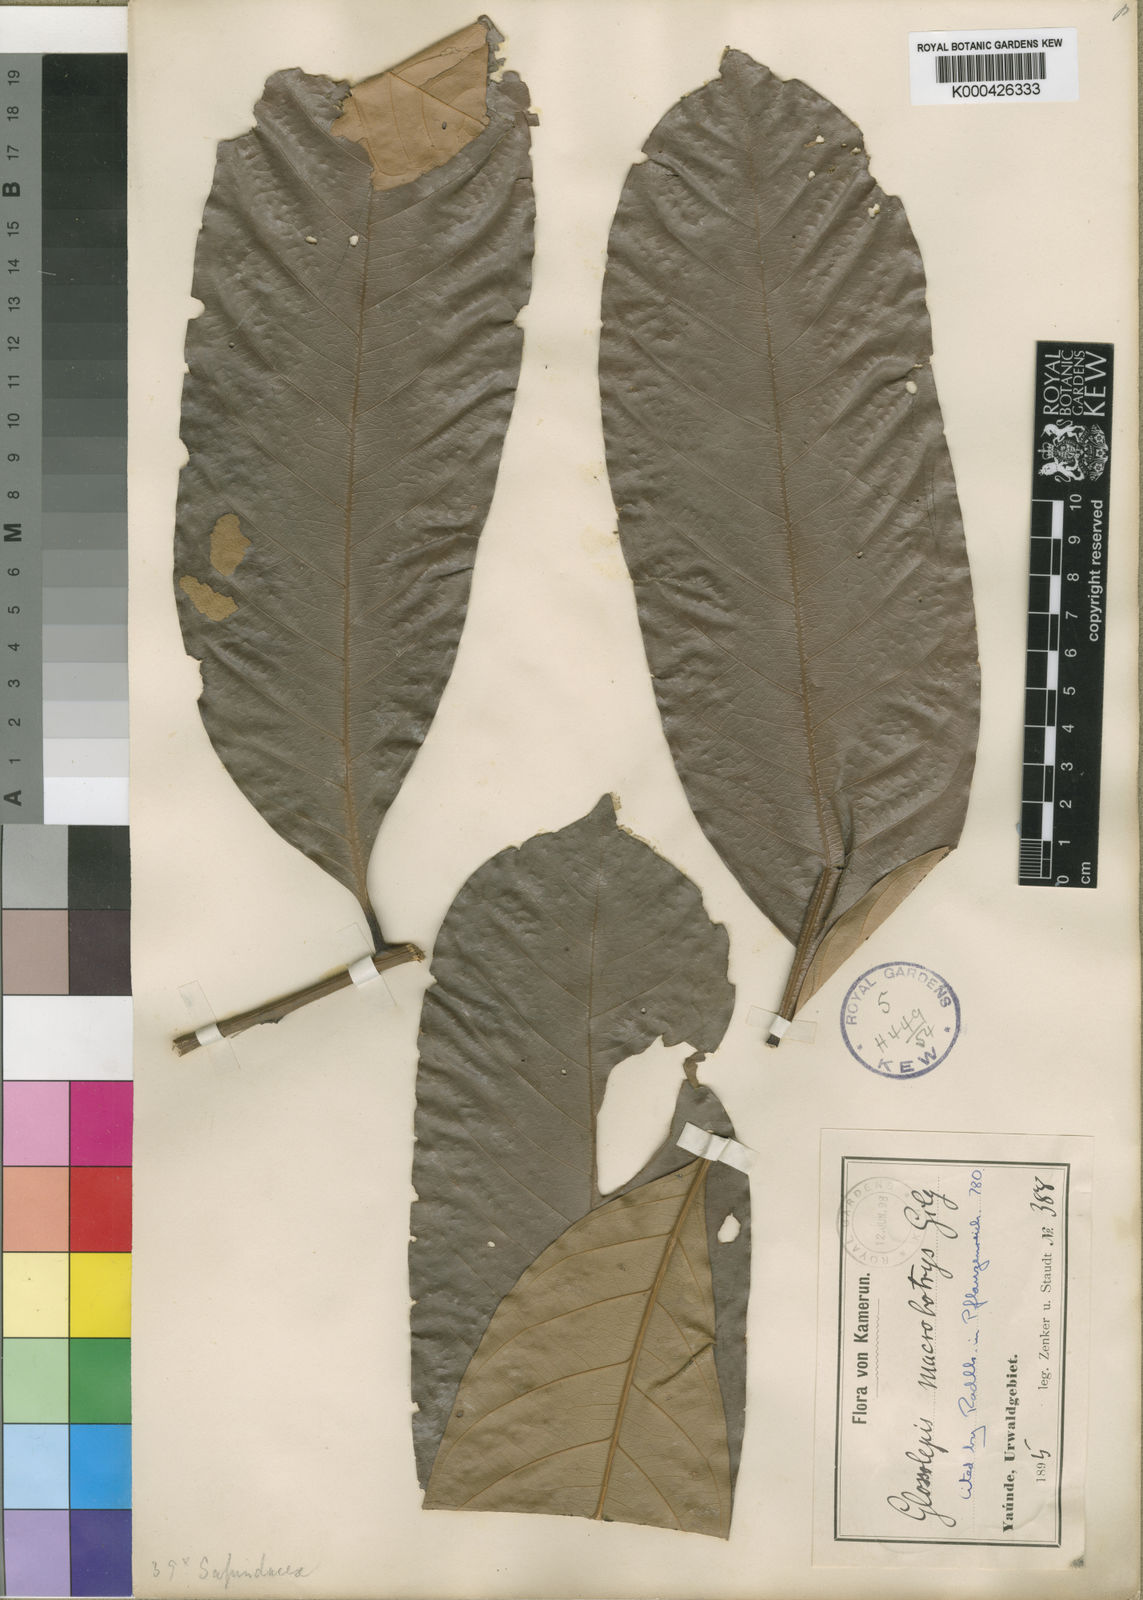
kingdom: Plantae
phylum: Tracheophyta
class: Magnoliopsida
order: Sapindales
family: Sapindaceae
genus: Chytranthus
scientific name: Chytranthus
